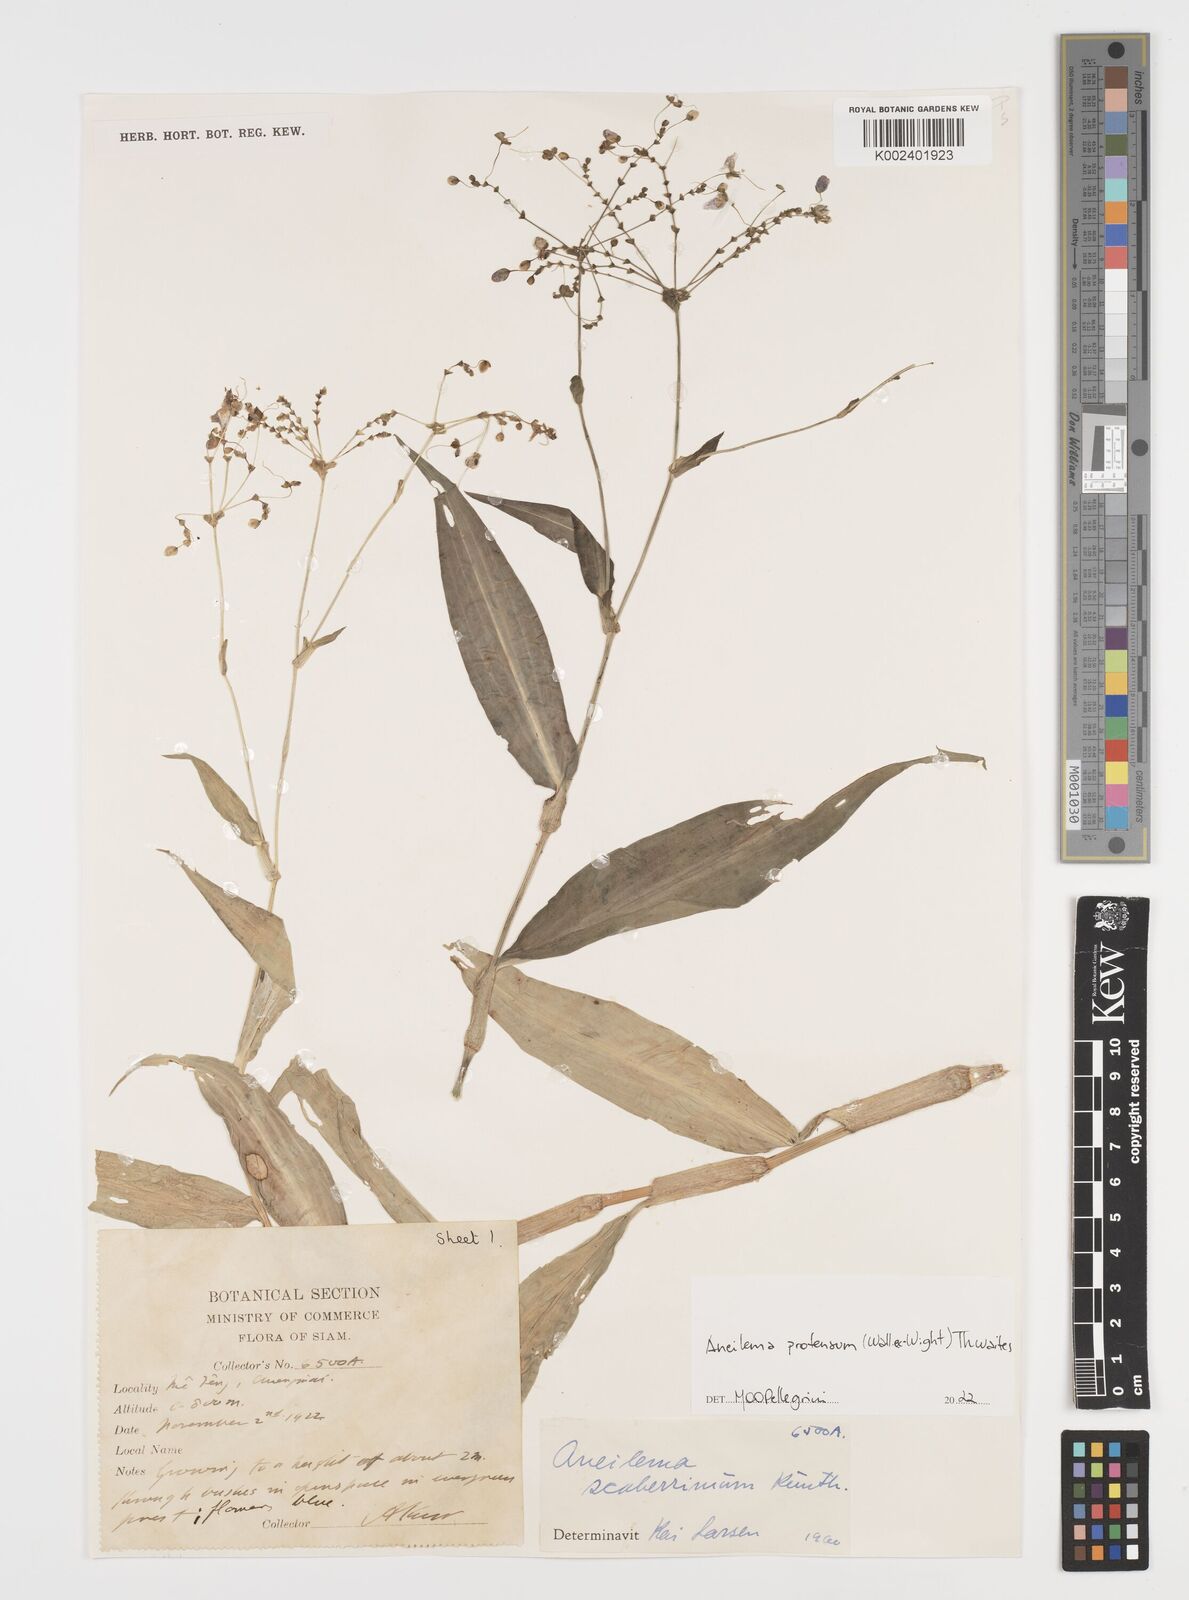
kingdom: Plantae
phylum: Tracheophyta
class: Liliopsida
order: Commelinales
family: Commelinaceae
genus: Rhopalephora
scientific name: Rhopalephora
